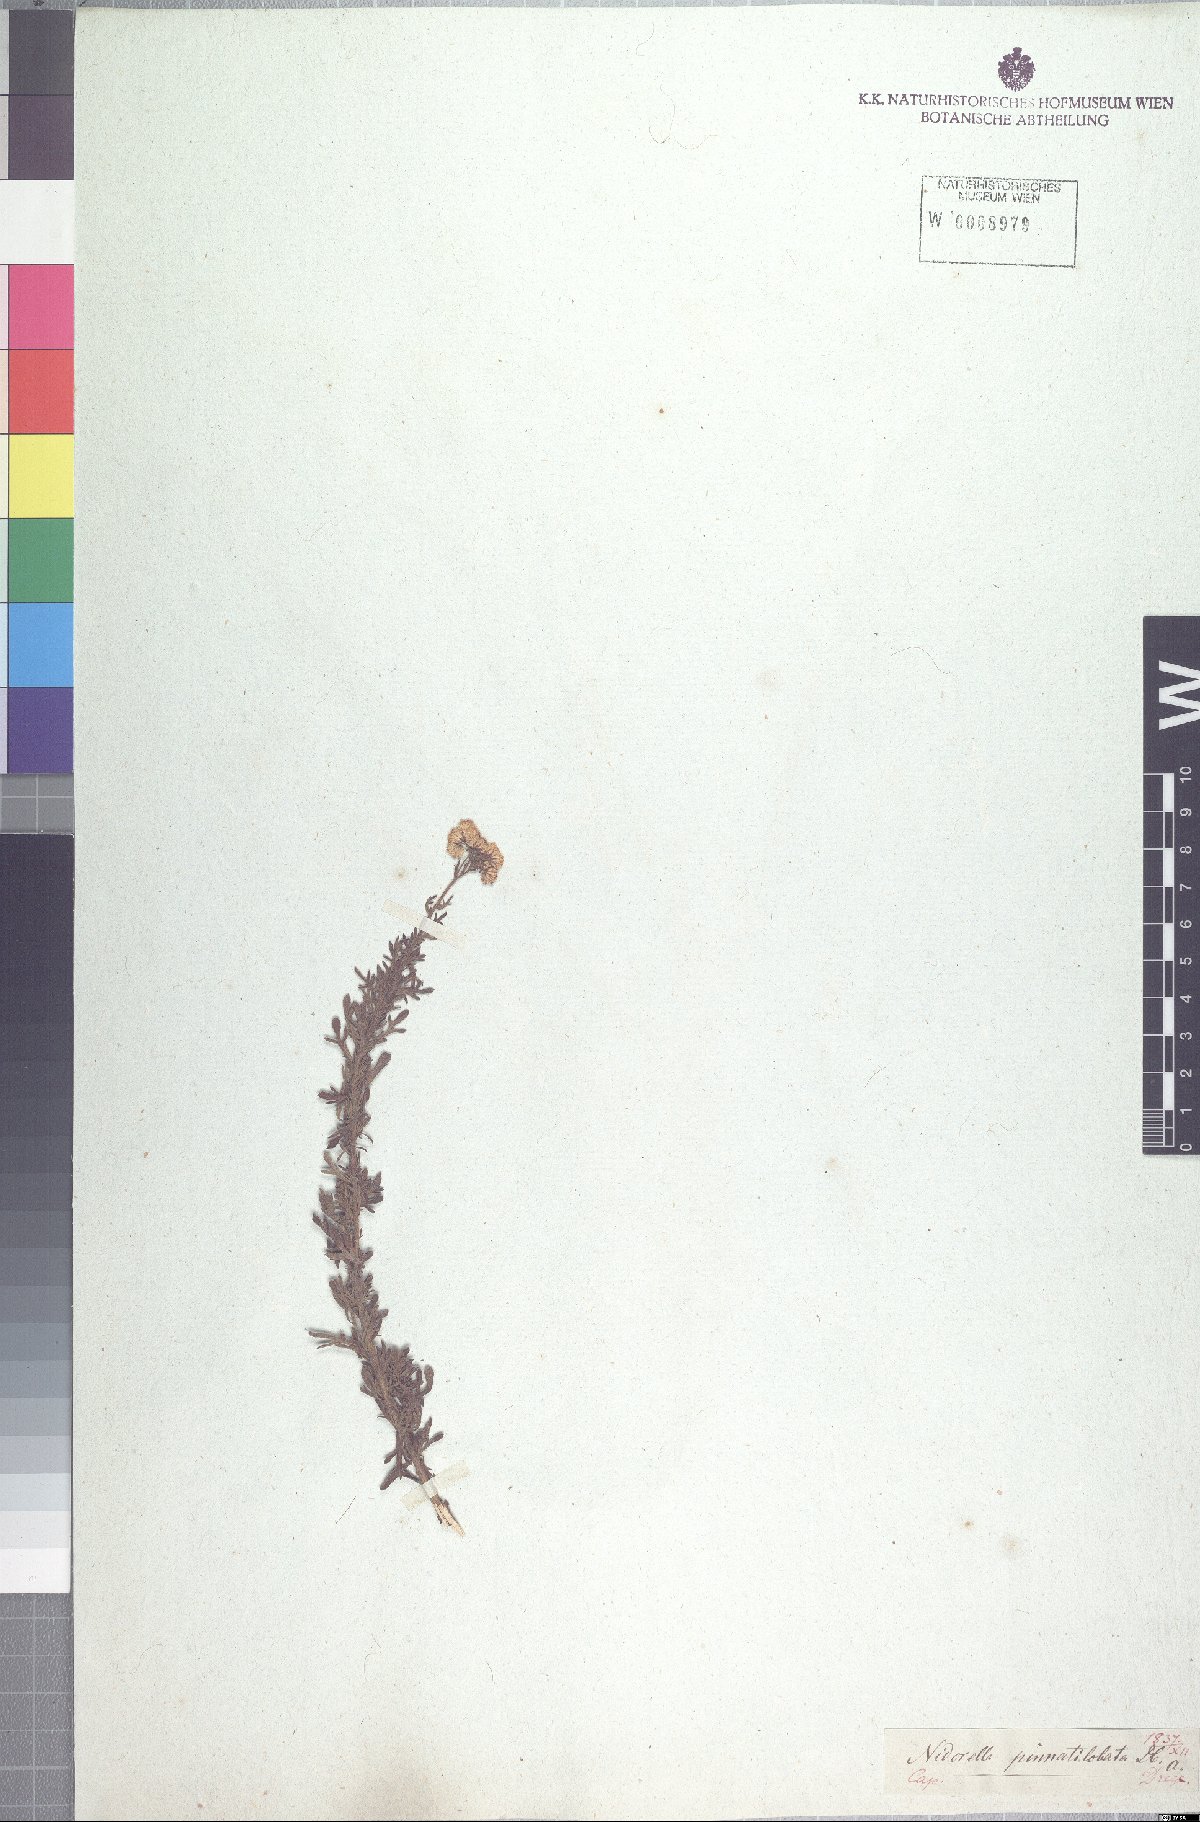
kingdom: Plantae
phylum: Tracheophyta
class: Magnoliopsida
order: Asterales
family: Asteraceae
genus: Nidorella
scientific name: Nidorella resedifolia
